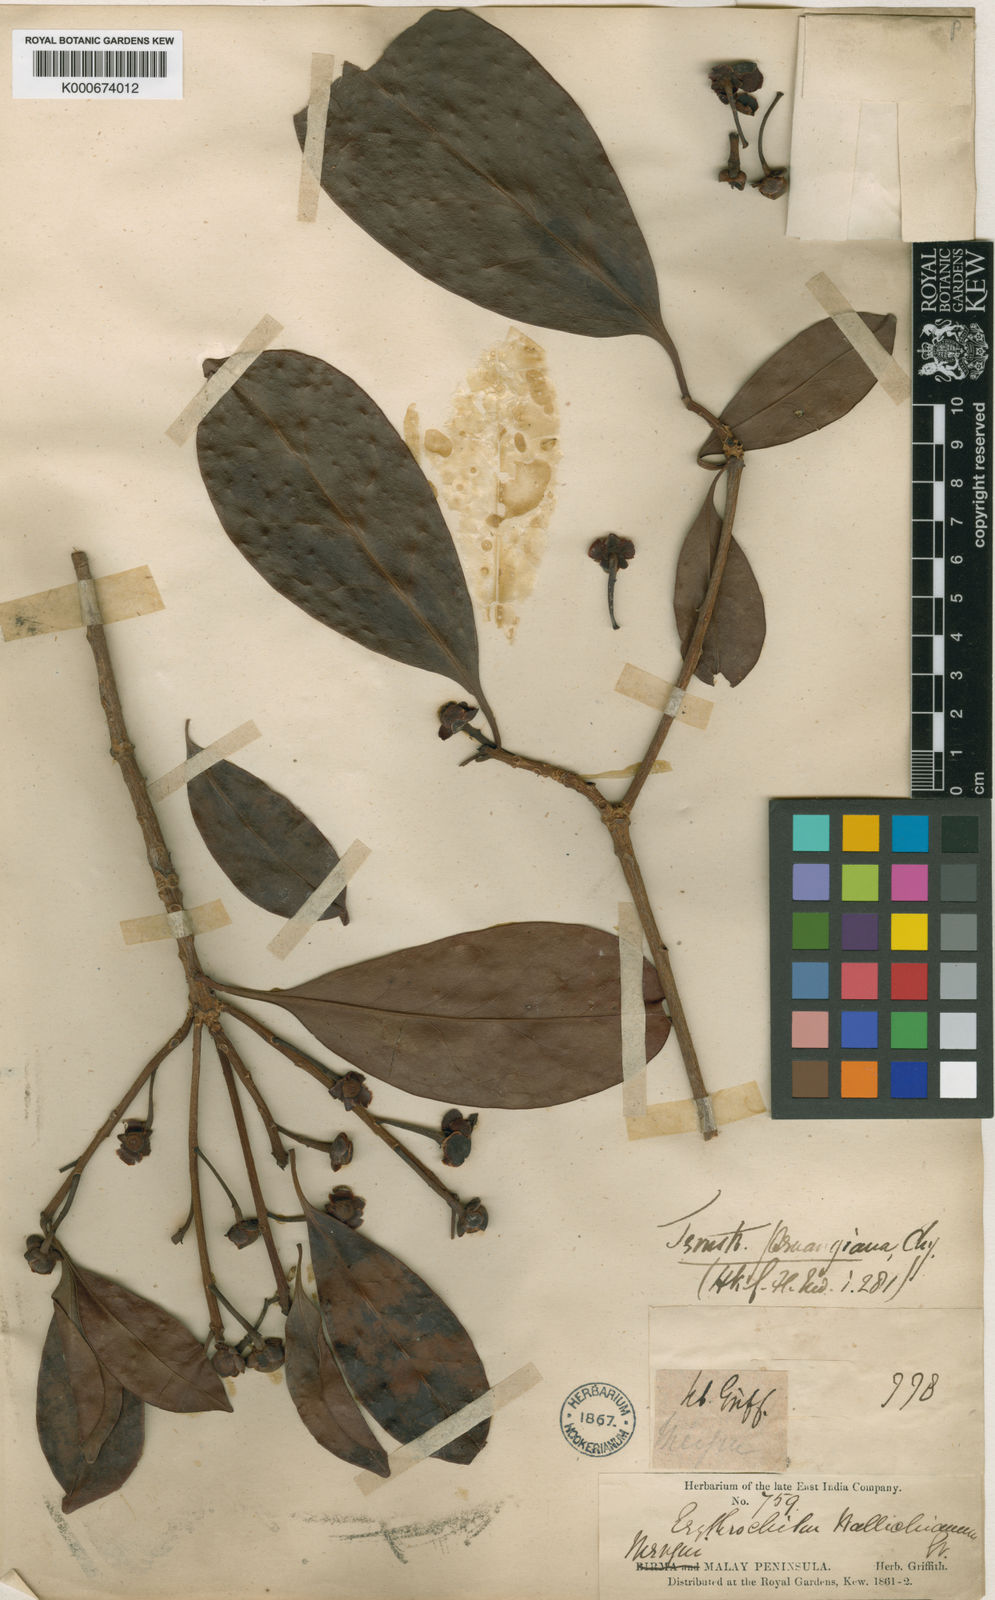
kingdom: Plantae
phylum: Tracheophyta
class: Magnoliopsida
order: Ericales
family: Pentaphylacaceae
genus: Ternstroemia
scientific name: Ternstroemia penangiana
